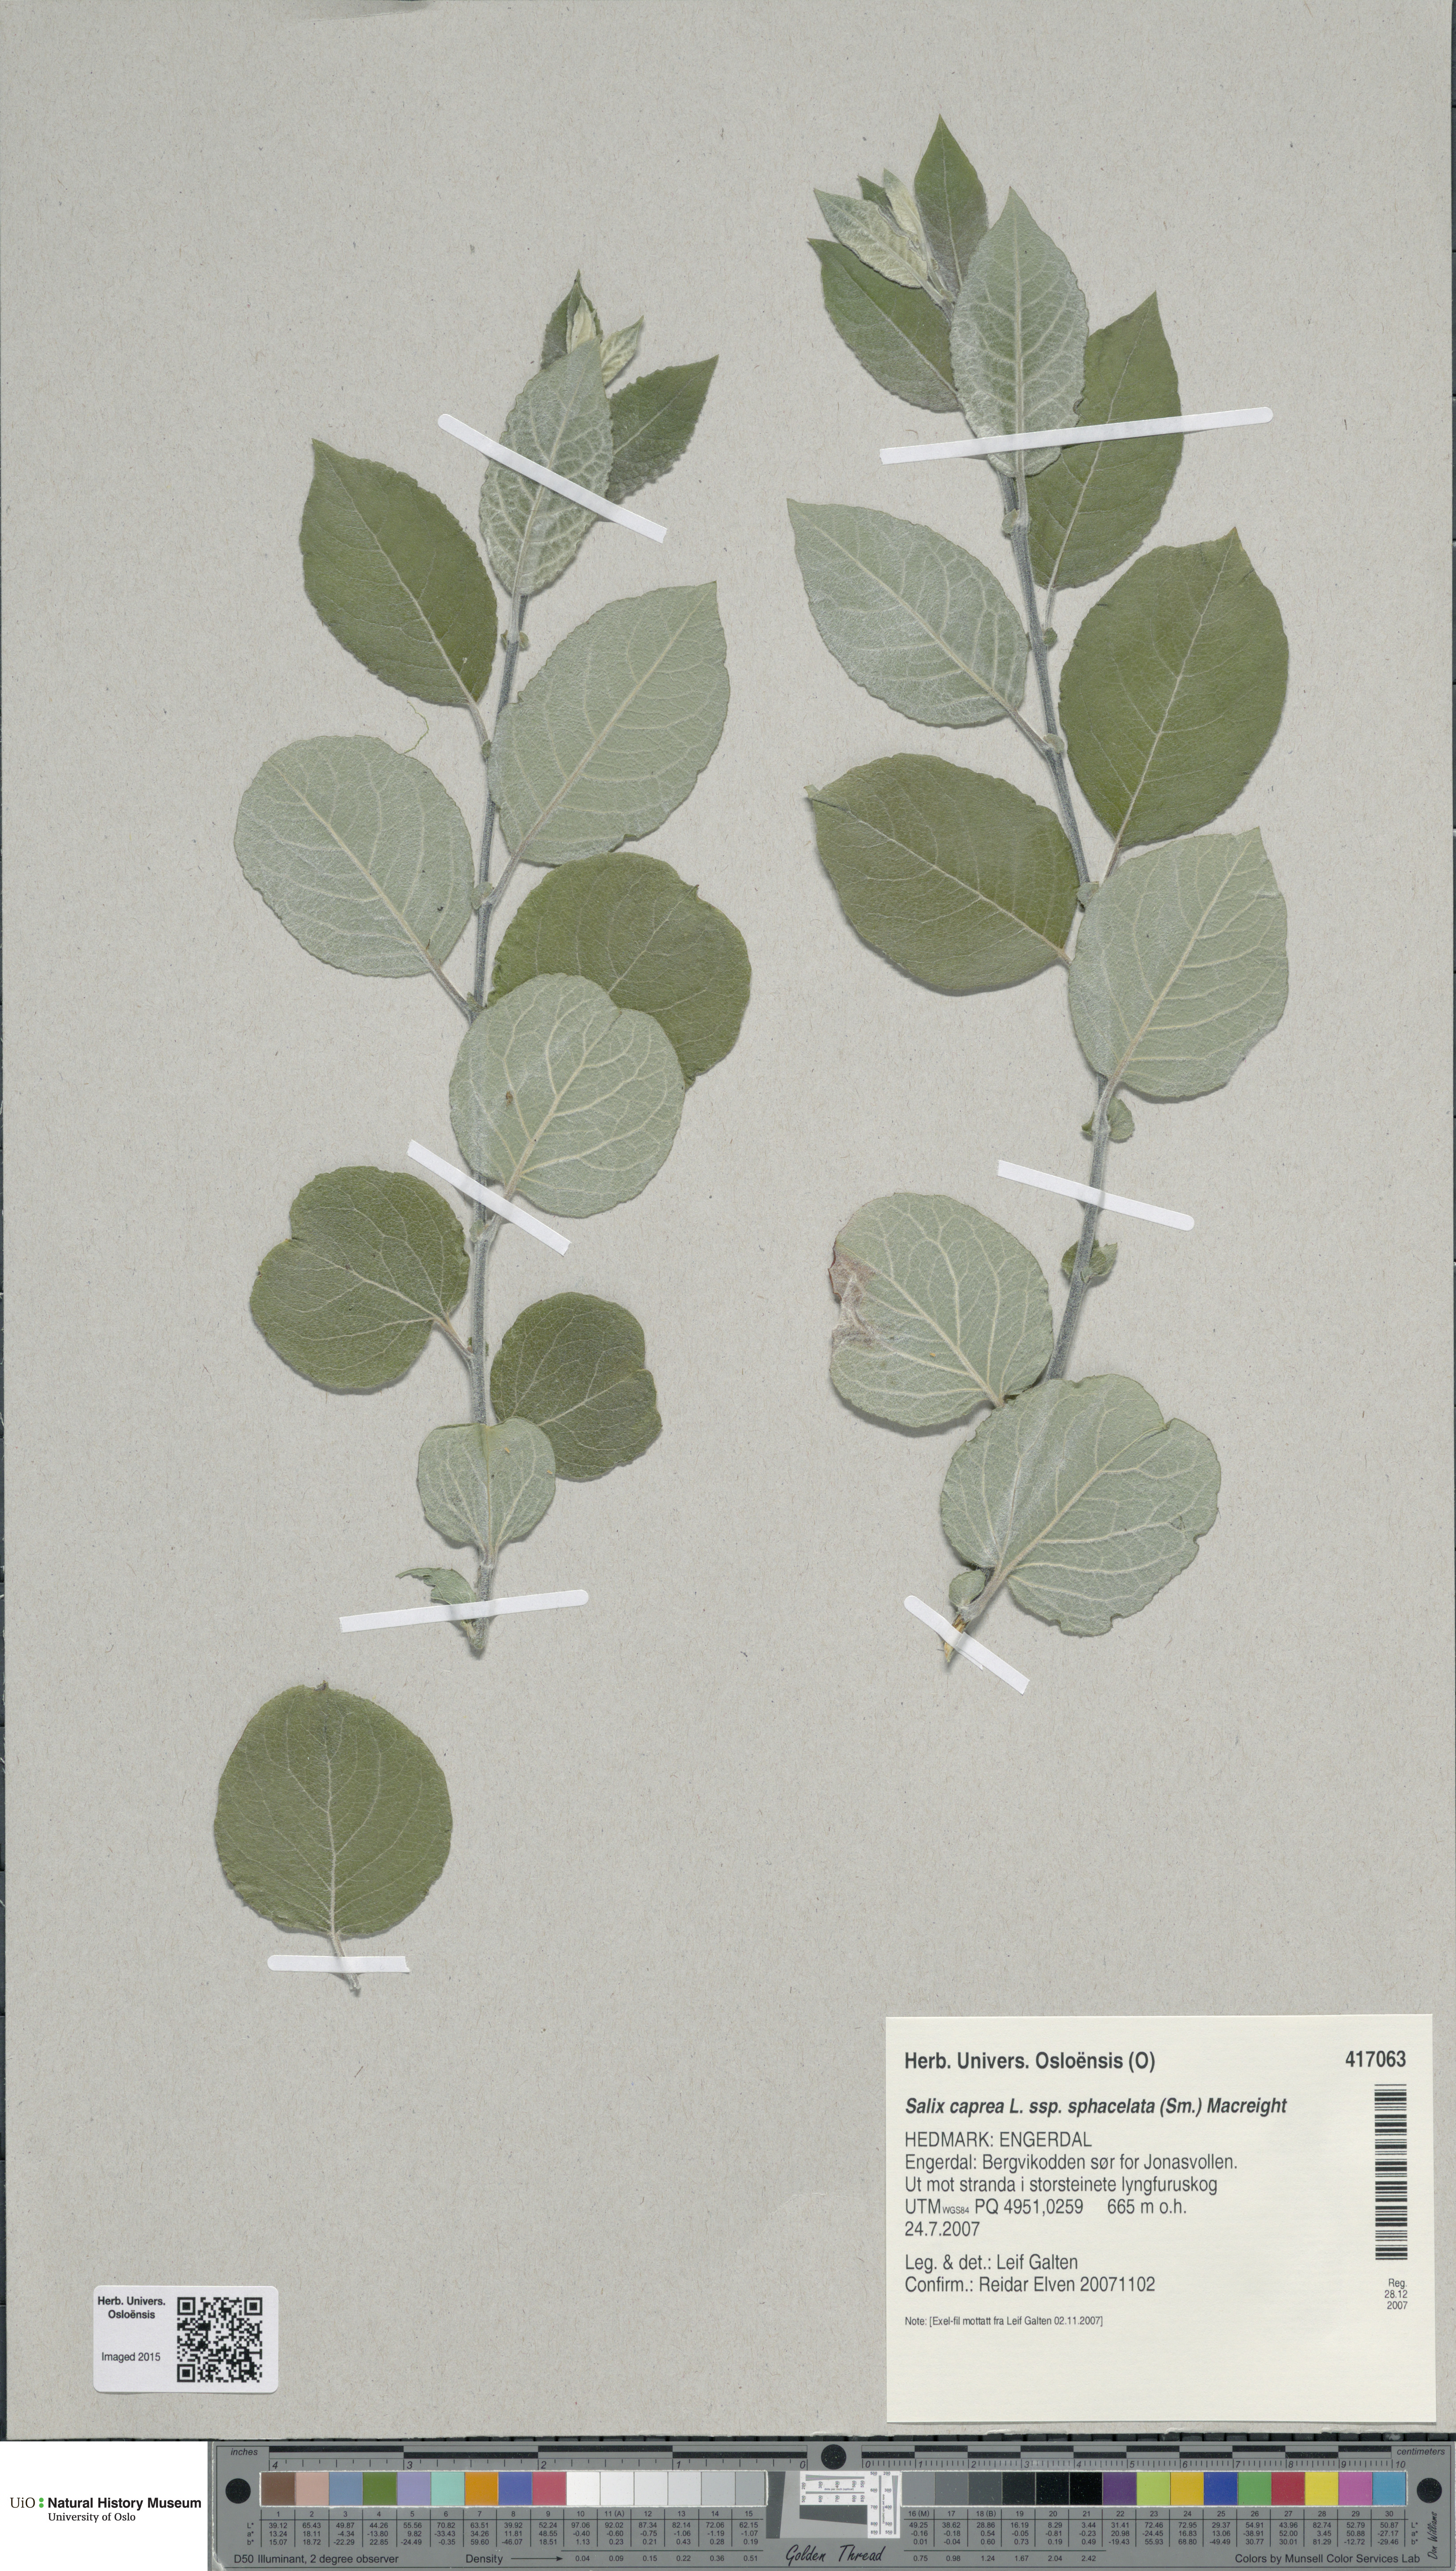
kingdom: Plantae
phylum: Tracheophyta
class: Magnoliopsida
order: Malpighiales
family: Salicaceae
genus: Salix
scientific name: Salix caprea
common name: Goat willow
